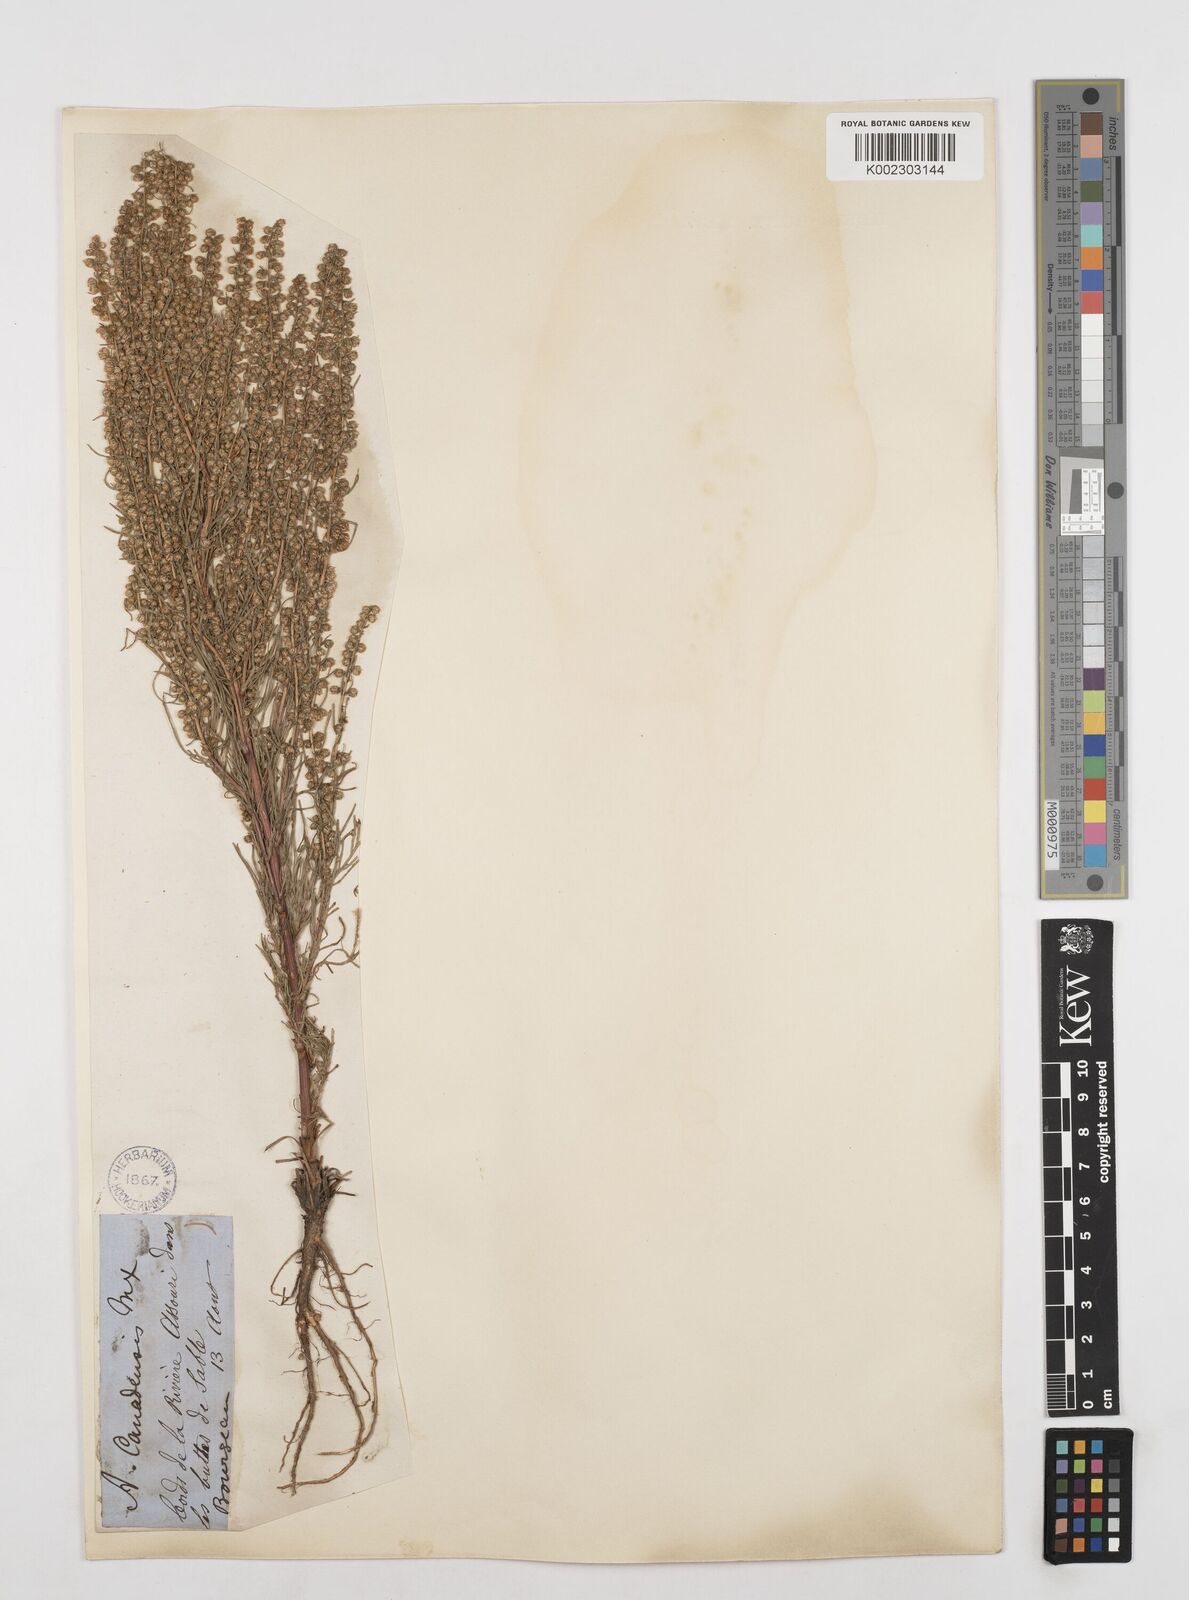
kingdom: Plantae
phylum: Tracheophyta
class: Magnoliopsida
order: Asterales
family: Asteraceae
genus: Artemisia
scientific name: Artemisia campestris
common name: Field wormwood
